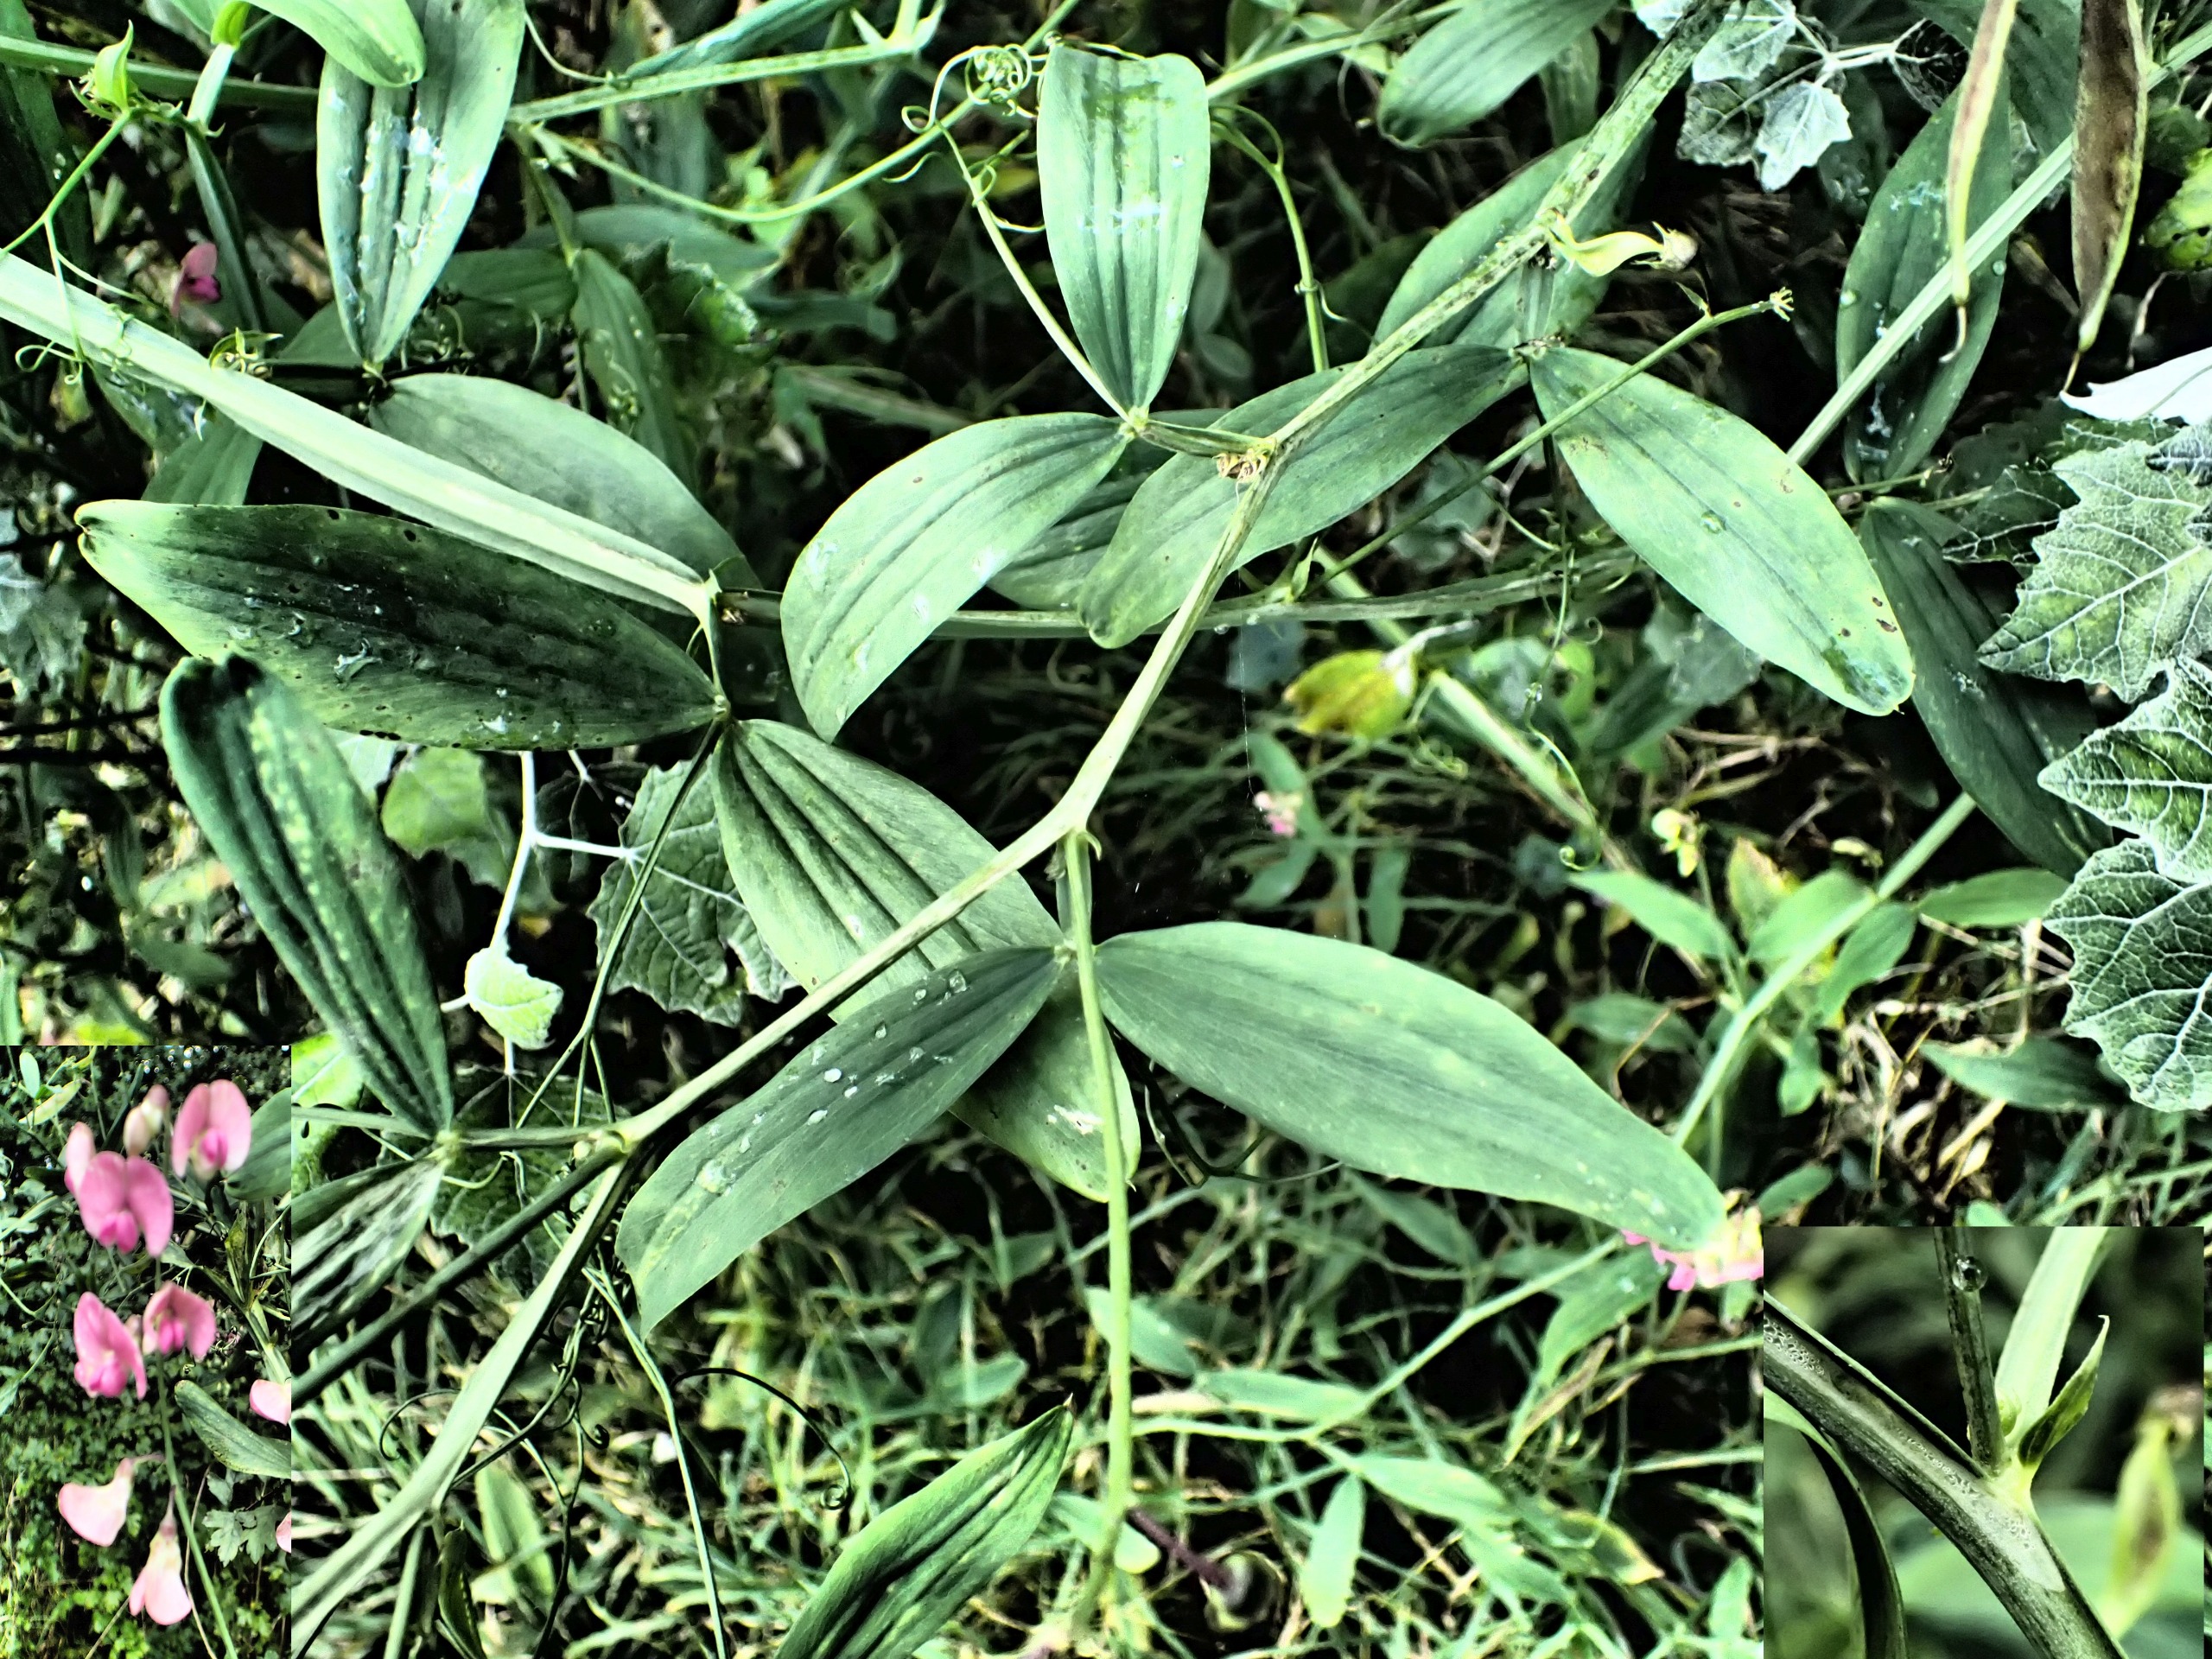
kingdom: Plantae
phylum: Tracheophyta
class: Magnoliopsida
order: Fabales
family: Fabaceae
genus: Lathyrus
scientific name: Lathyrus tuberosus
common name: Knold-fladbælg
